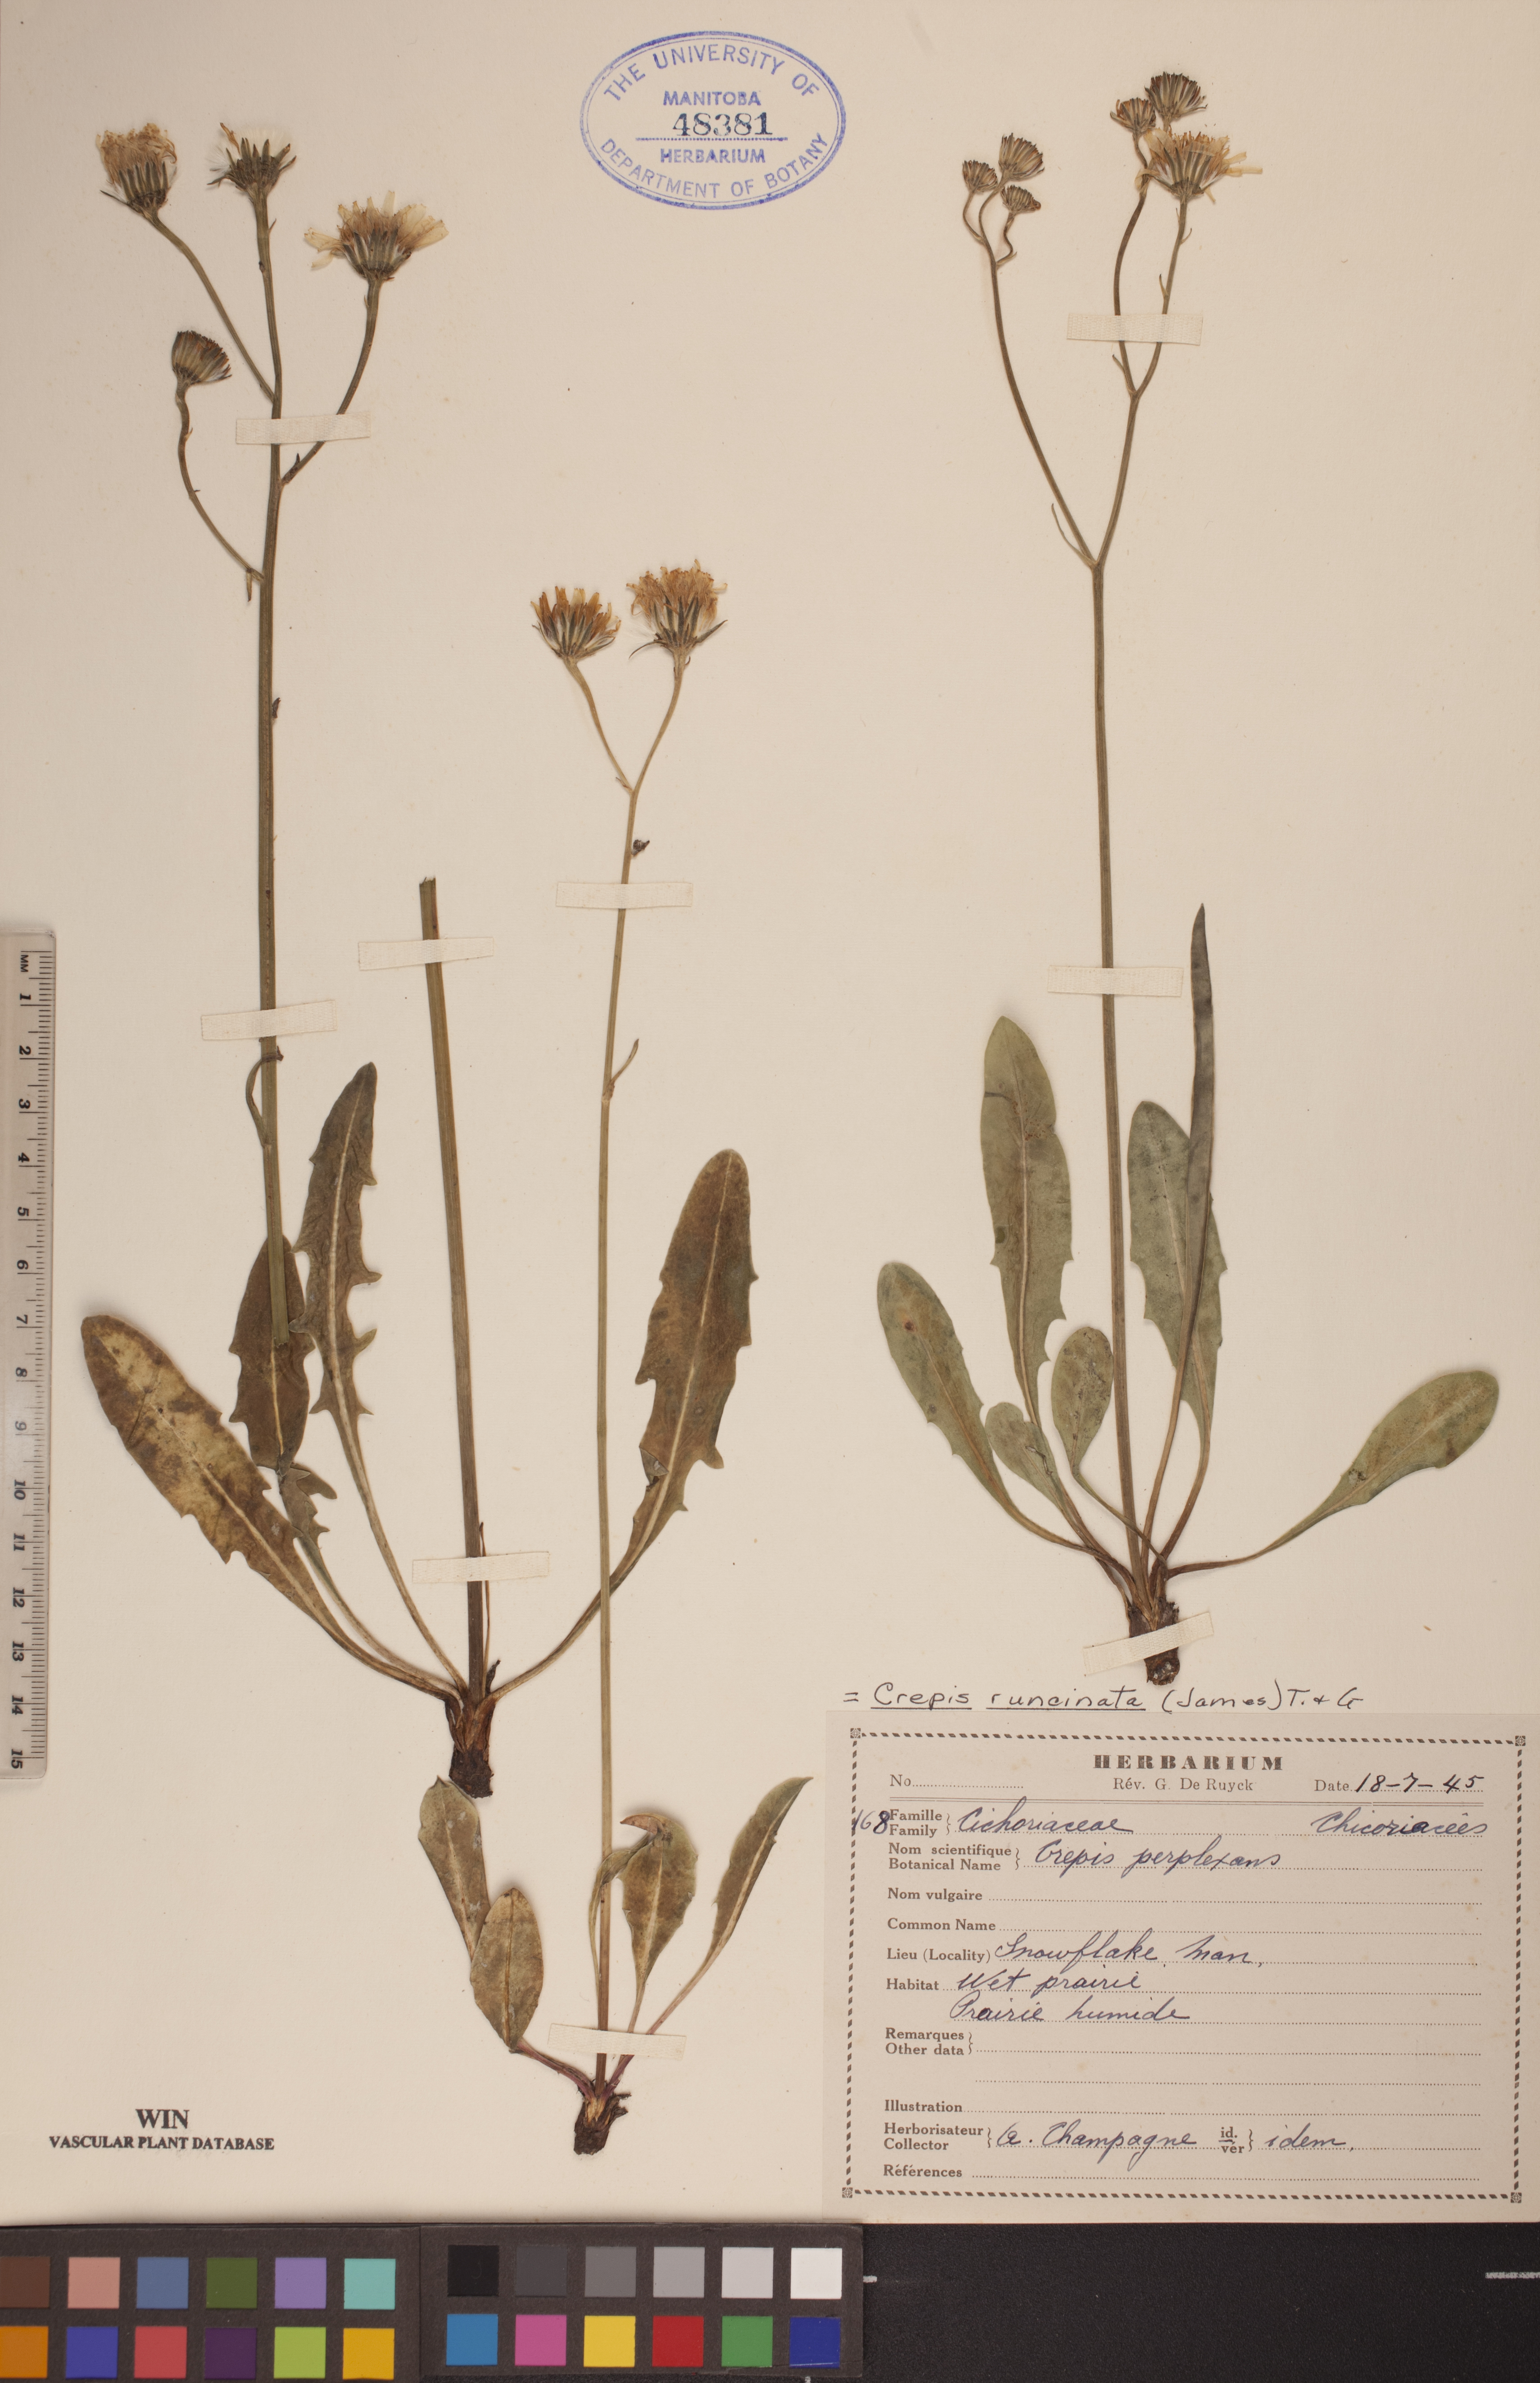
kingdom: Plantae
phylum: Tracheophyta
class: Magnoliopsida
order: Asterales
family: Asteraceae
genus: Crepis
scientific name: Crepis runcinata
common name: Dandelion hawksbeard
